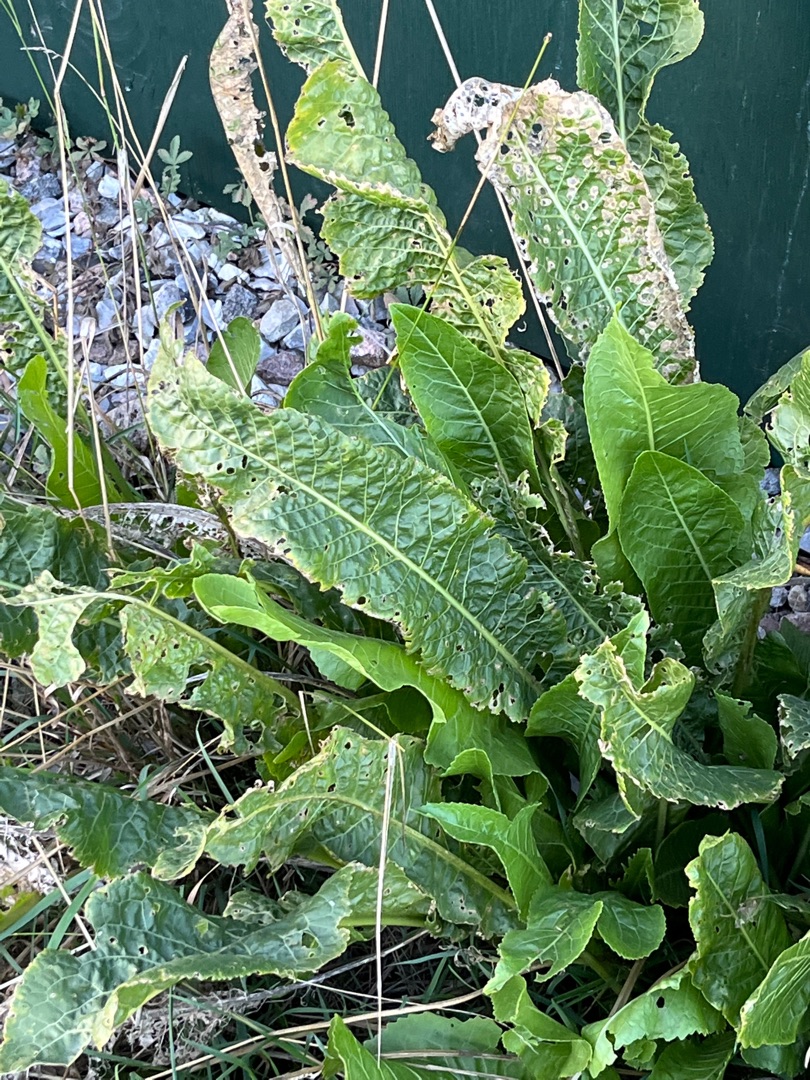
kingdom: Plantae
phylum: Tracheophyta
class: Magnoliopsida
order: Brassicales
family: Brassicaceae
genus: Armoracia
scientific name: Armoracia rusticana
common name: Peberrod
